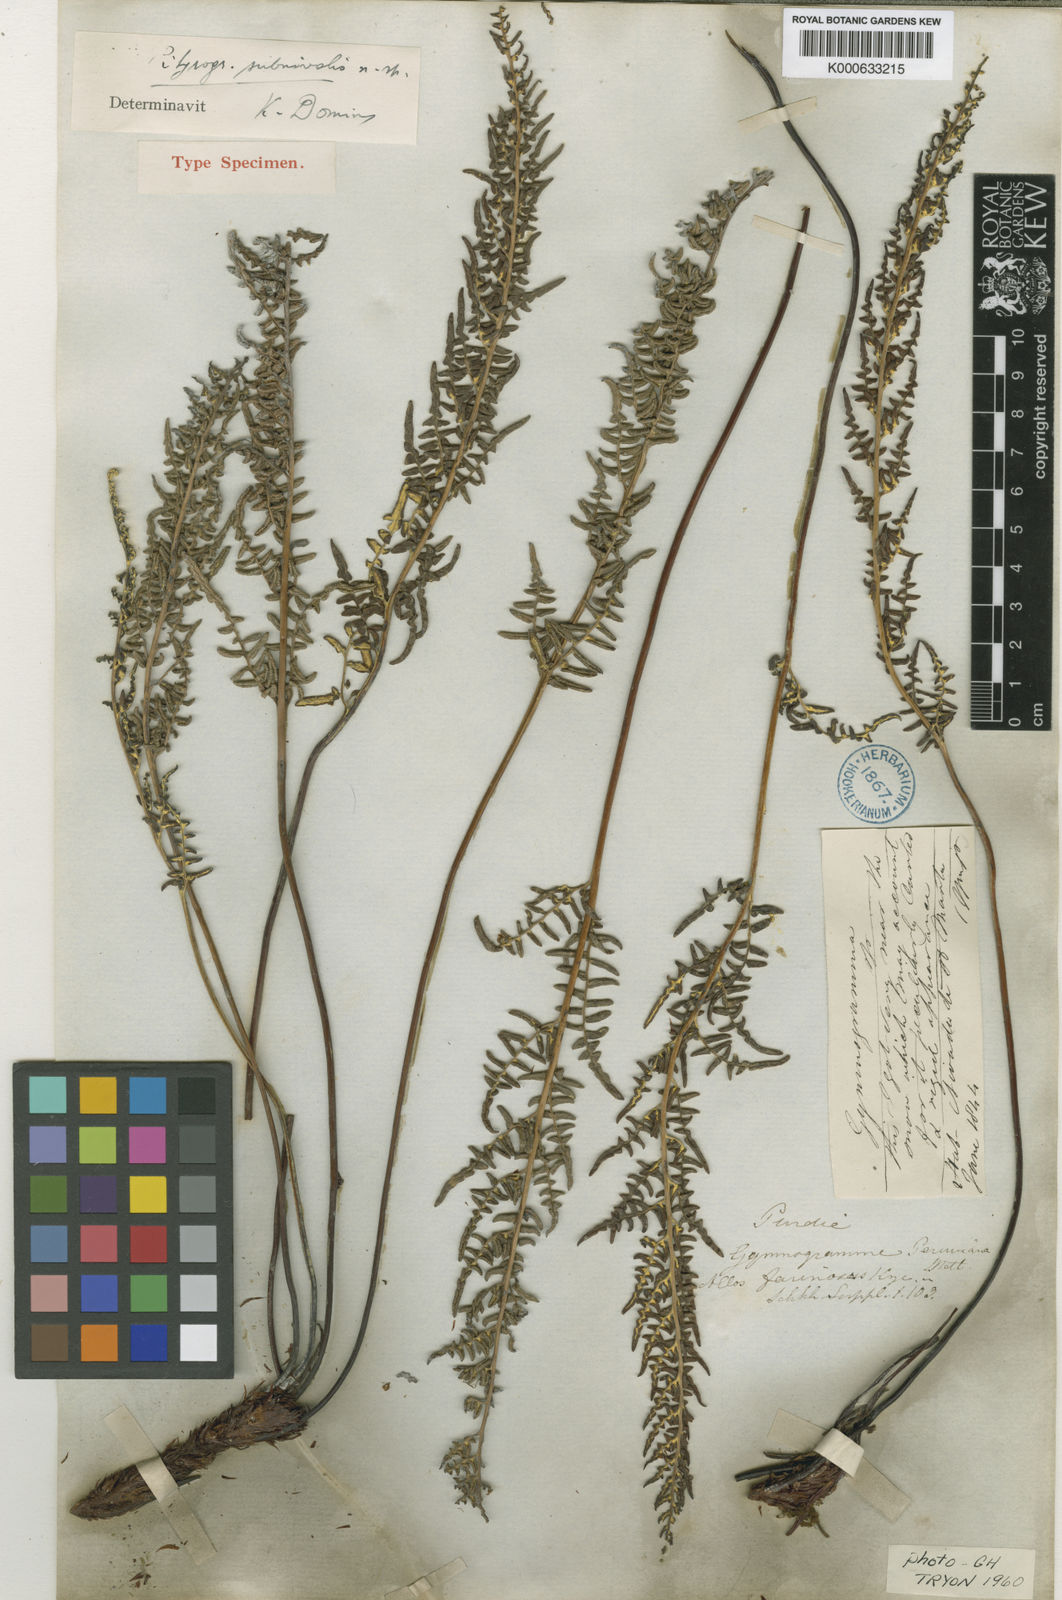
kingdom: Plantae
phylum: Tracheophyta
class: Polypodiopsida
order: Polypodiales
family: Pteridaceae
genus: Pityrogramma
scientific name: Pityrogramma chrysoconia
